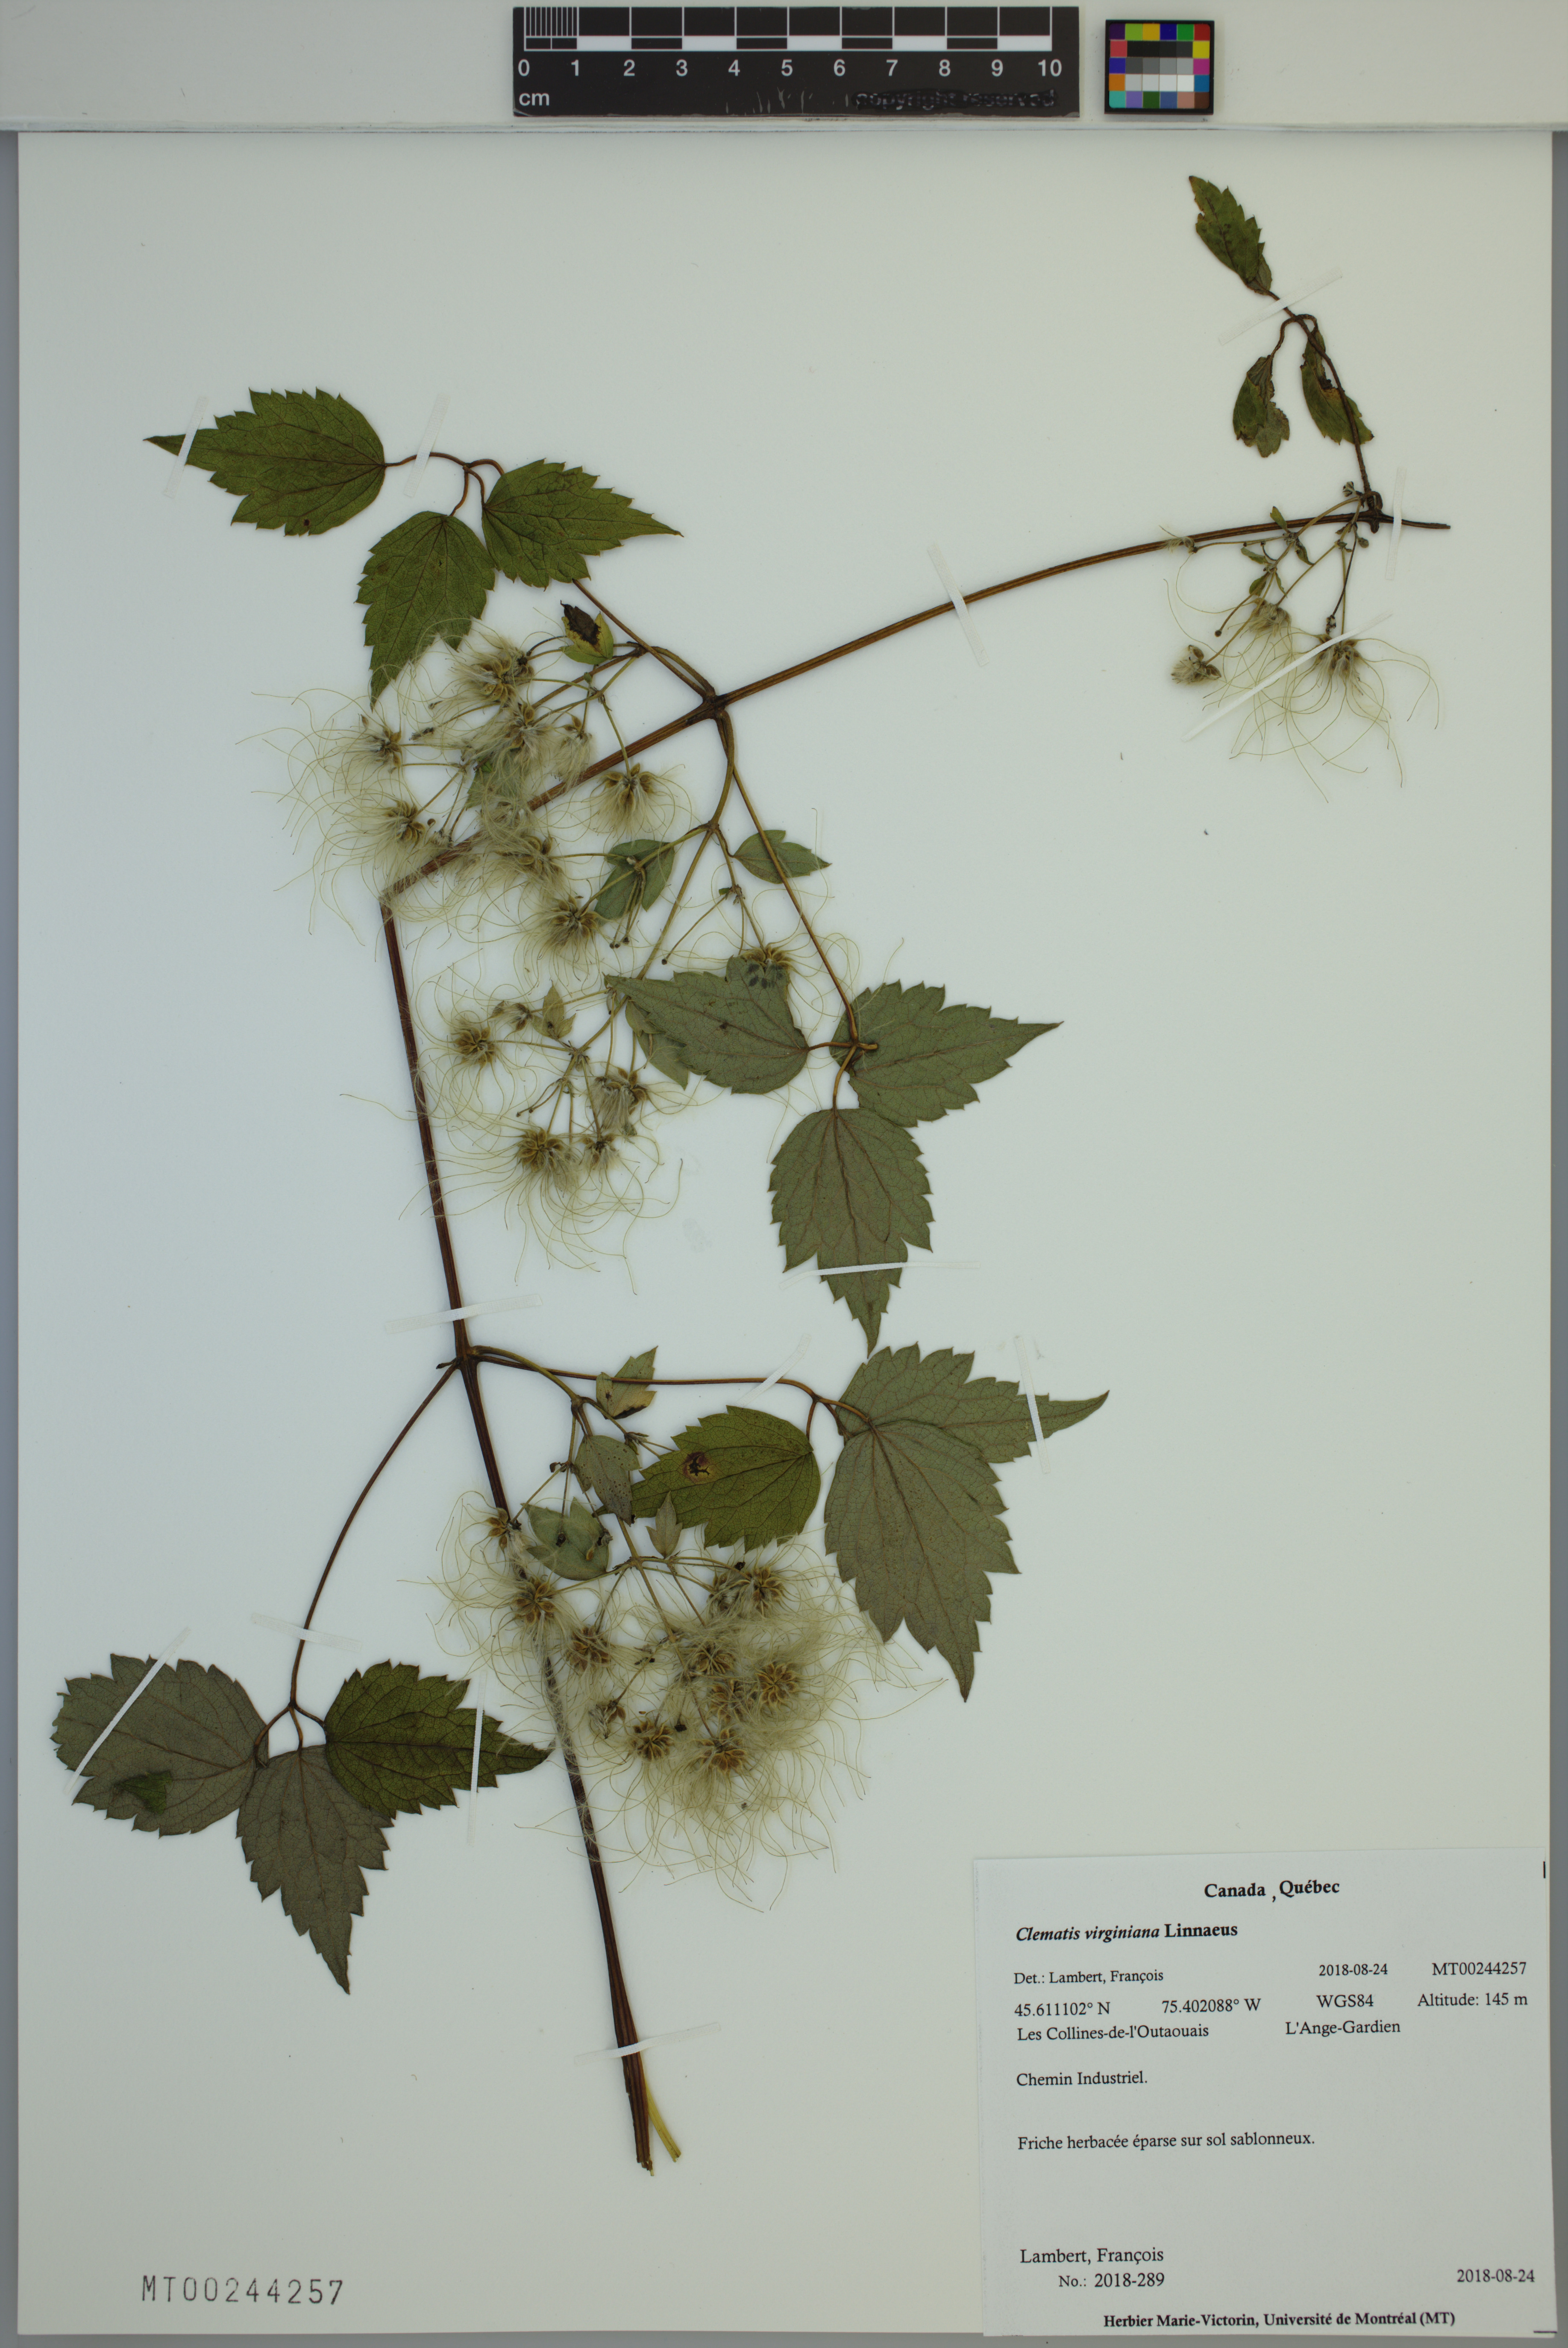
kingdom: Plantae
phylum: Tracheophyta
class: Magnoliopsida
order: Ranunculales
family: Ranunculaceae
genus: Clematis
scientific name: Clematis virginiana
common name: Virgin's-bower
